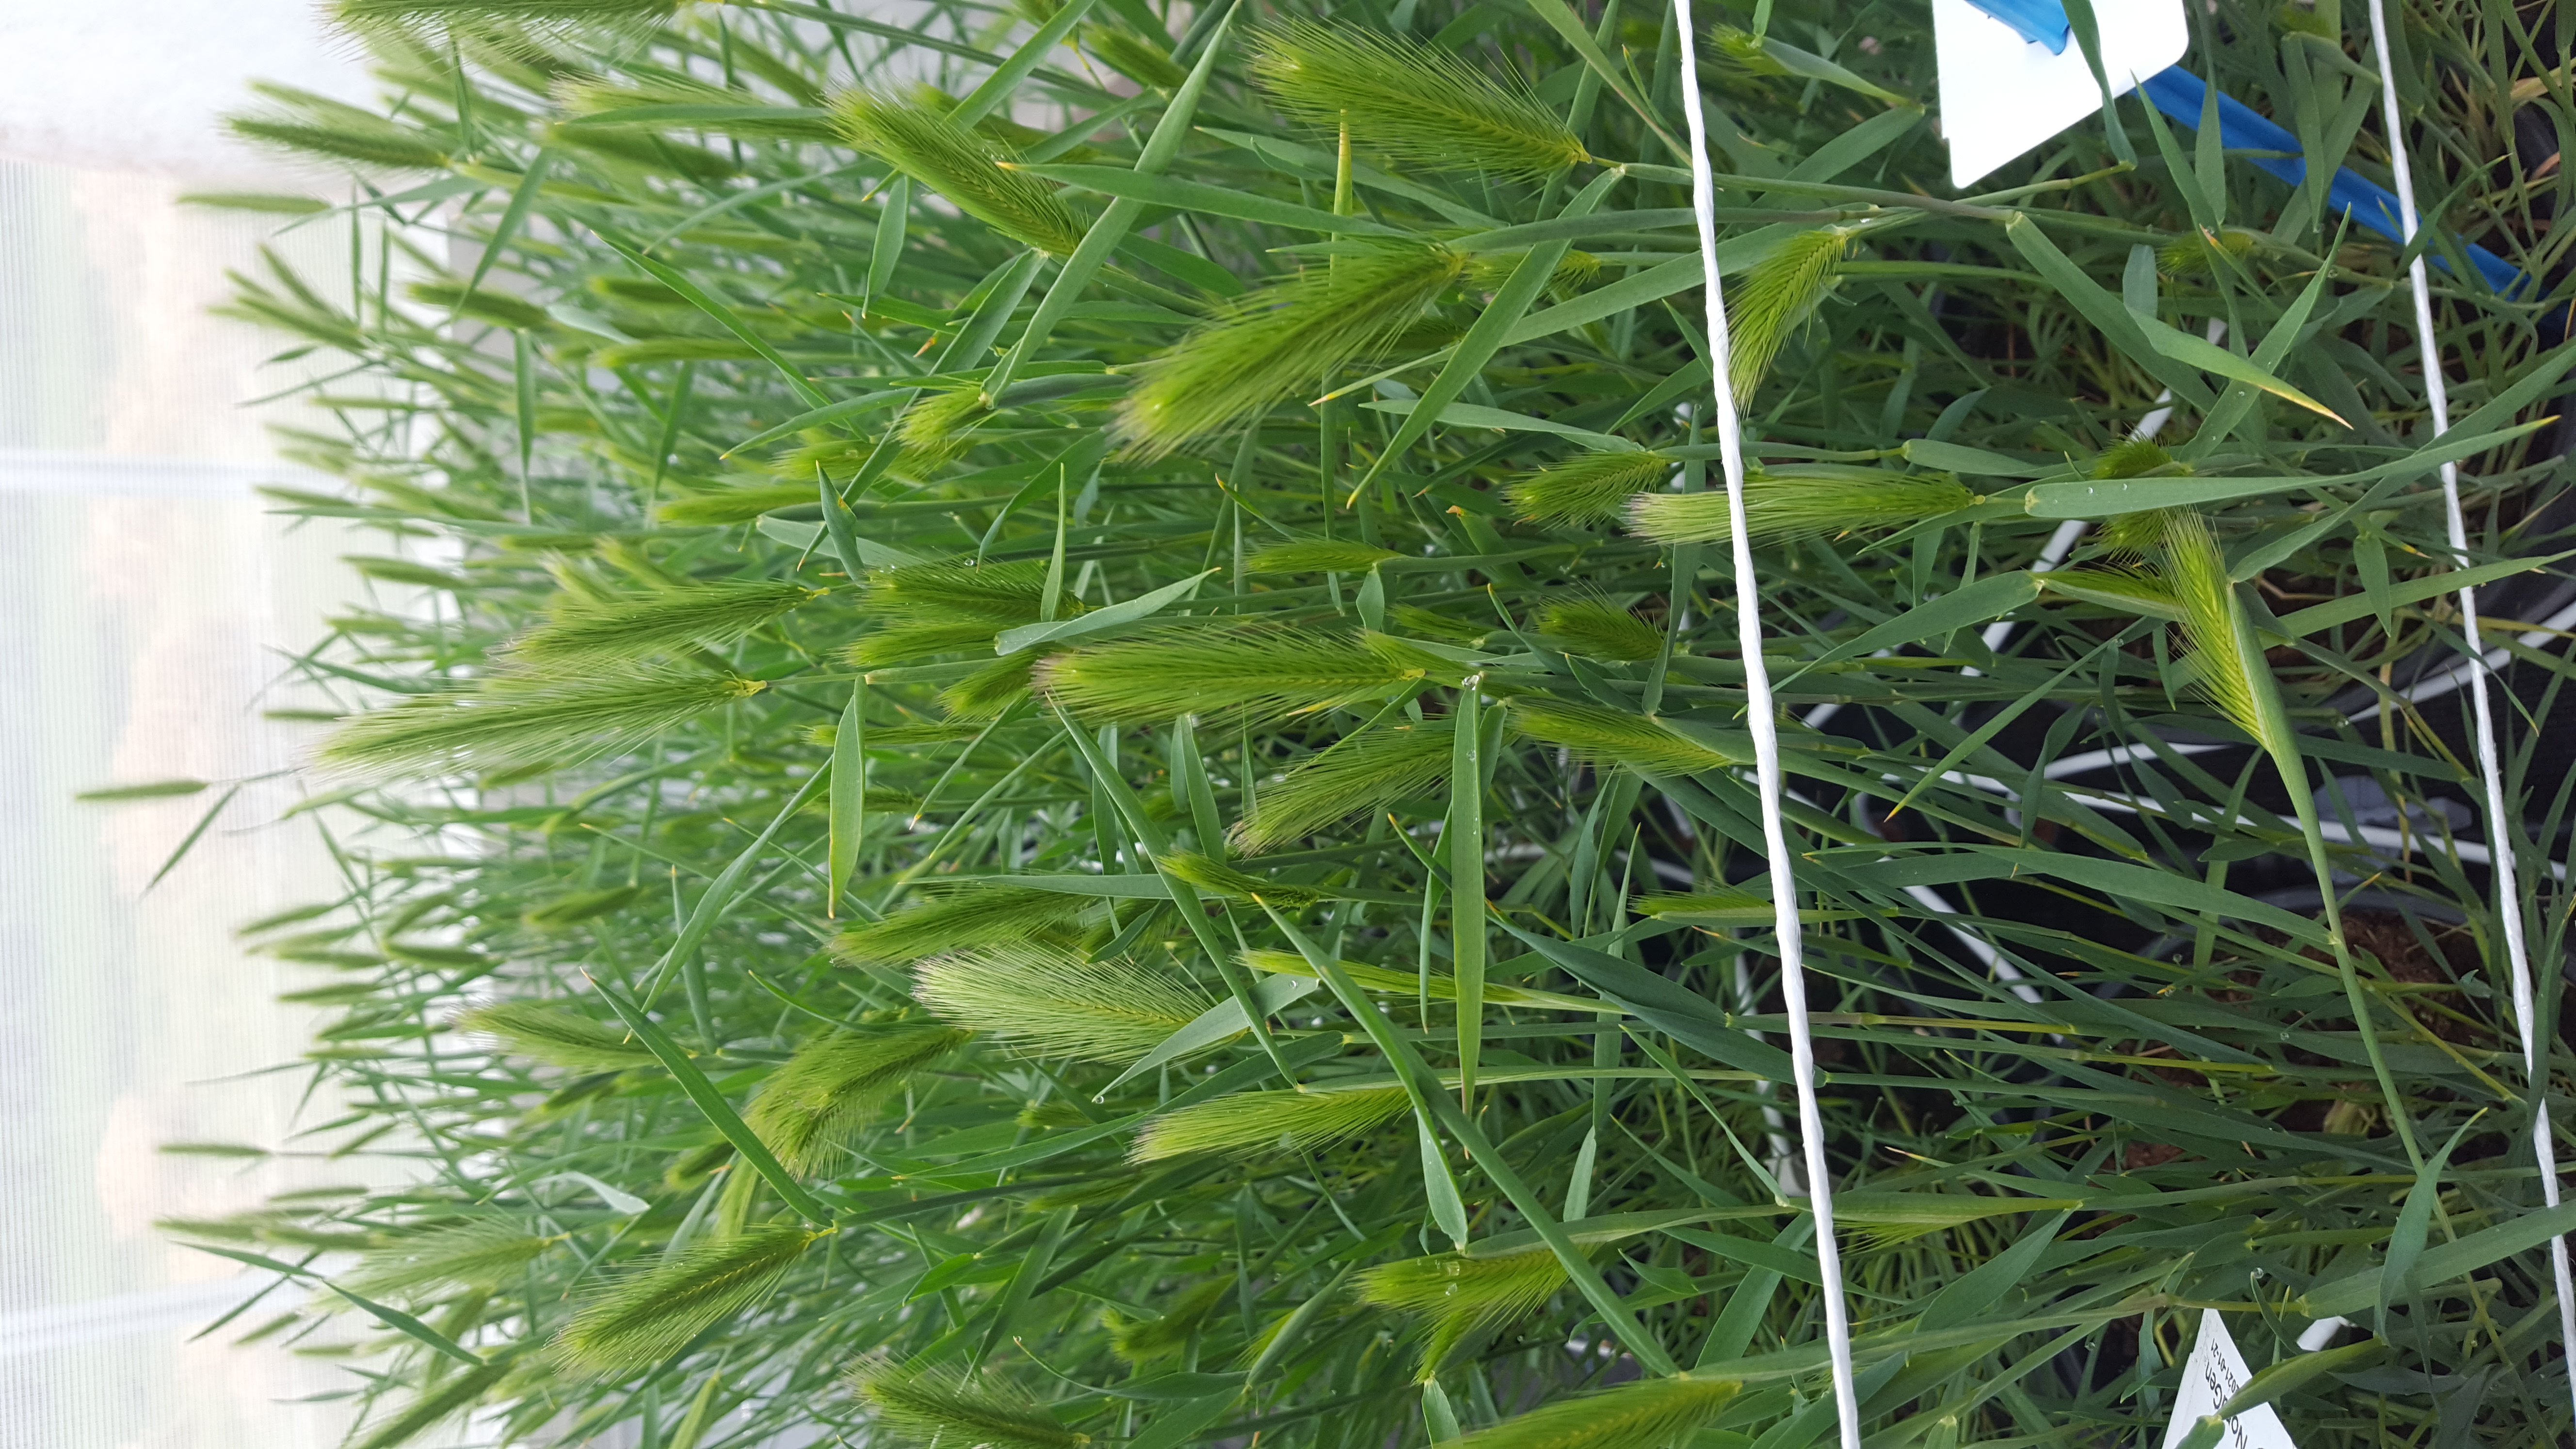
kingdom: Plantae
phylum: Tracheophyta
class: Liliopsida
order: Poales
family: Poaceae
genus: Hordeum
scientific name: Hordeum marinum
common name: Sea barley
